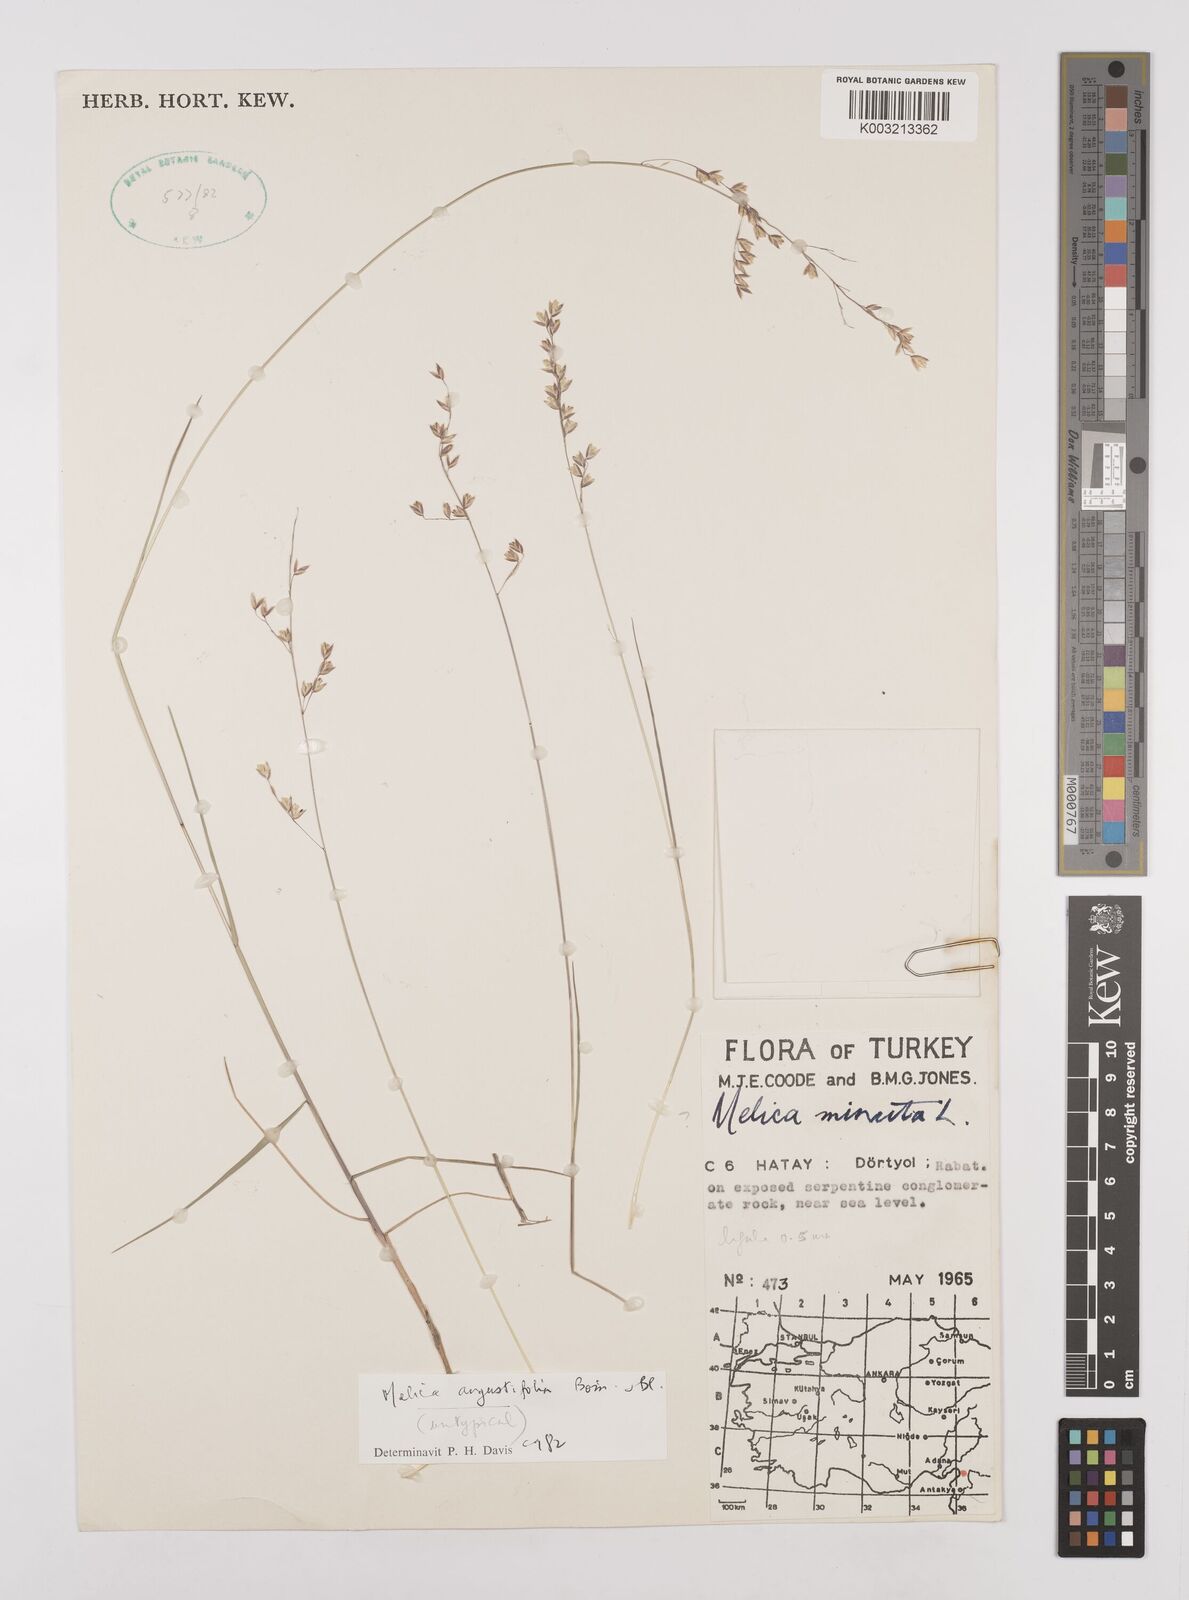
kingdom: Plantae
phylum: Tracheophyta
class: Liliopsida
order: Poales
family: Poaceae
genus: Melica
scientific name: Melica
